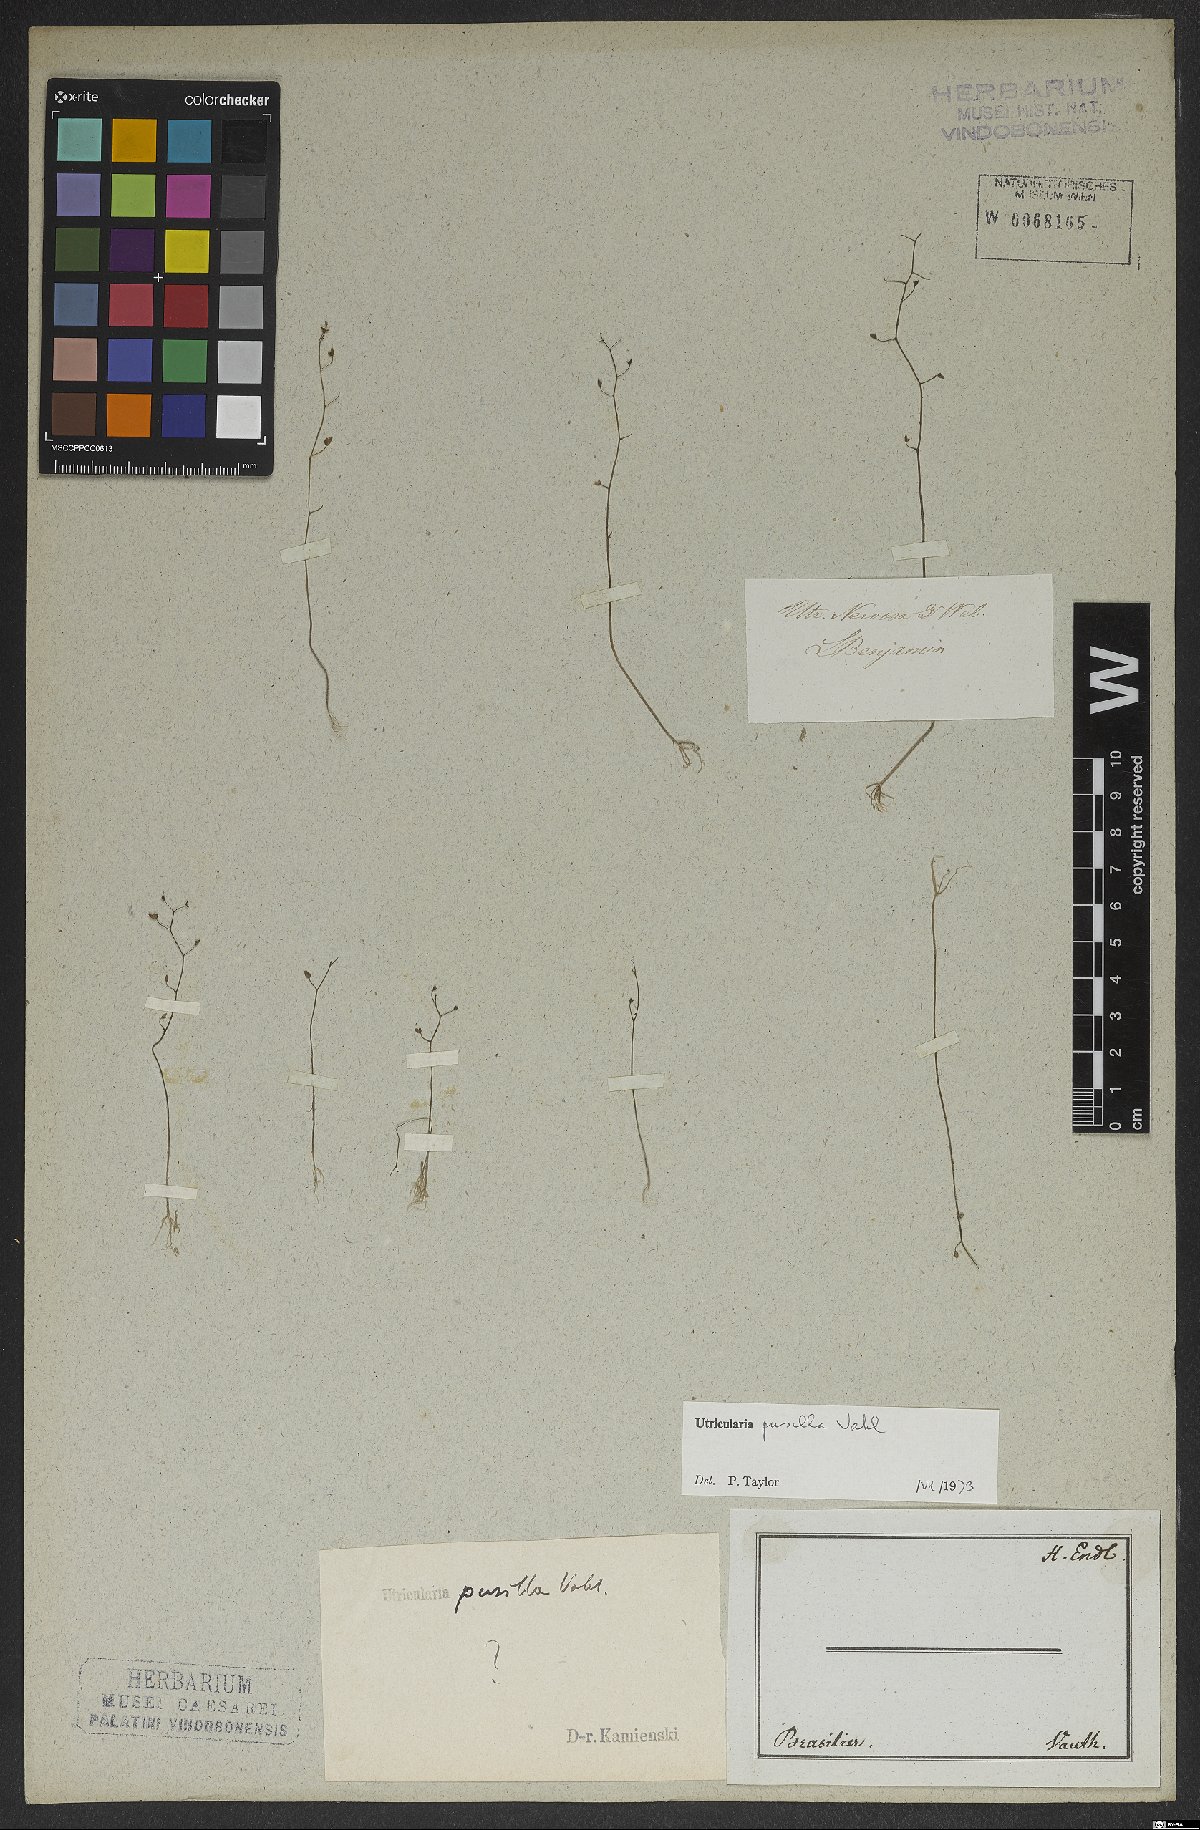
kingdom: Plantae
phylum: Tracheophyta
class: Magnoliopsida
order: Lamiales
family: Lentibulariaceae
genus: Utricularia
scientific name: Utricularia pusilla
